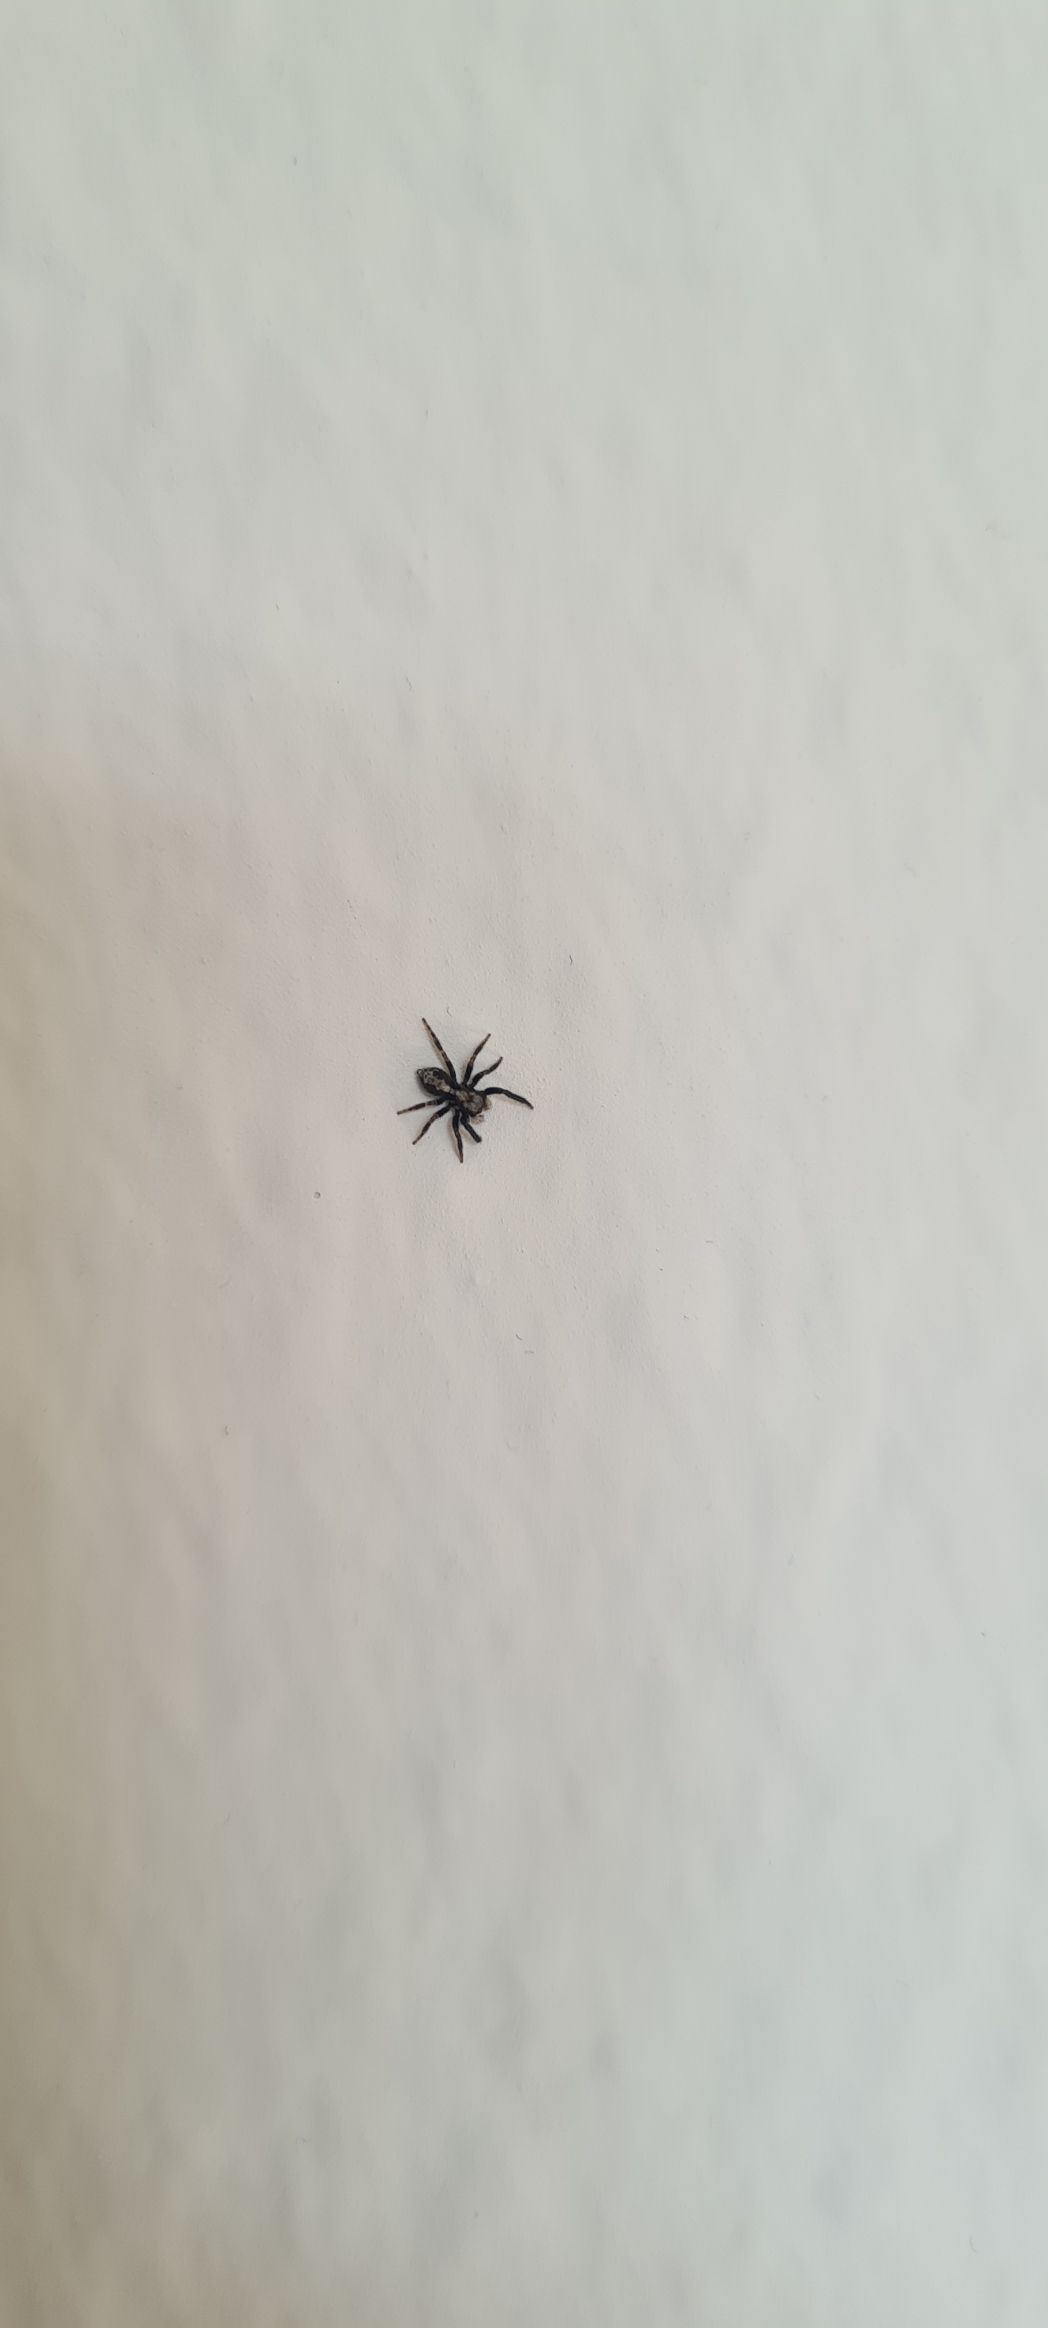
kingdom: Animalia
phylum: Arthropoda
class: Arachnida
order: Araneae
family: Salticidae
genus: Pseudeuophrys
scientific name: Pseudeuophrys lanigera
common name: Vinduesspringer
